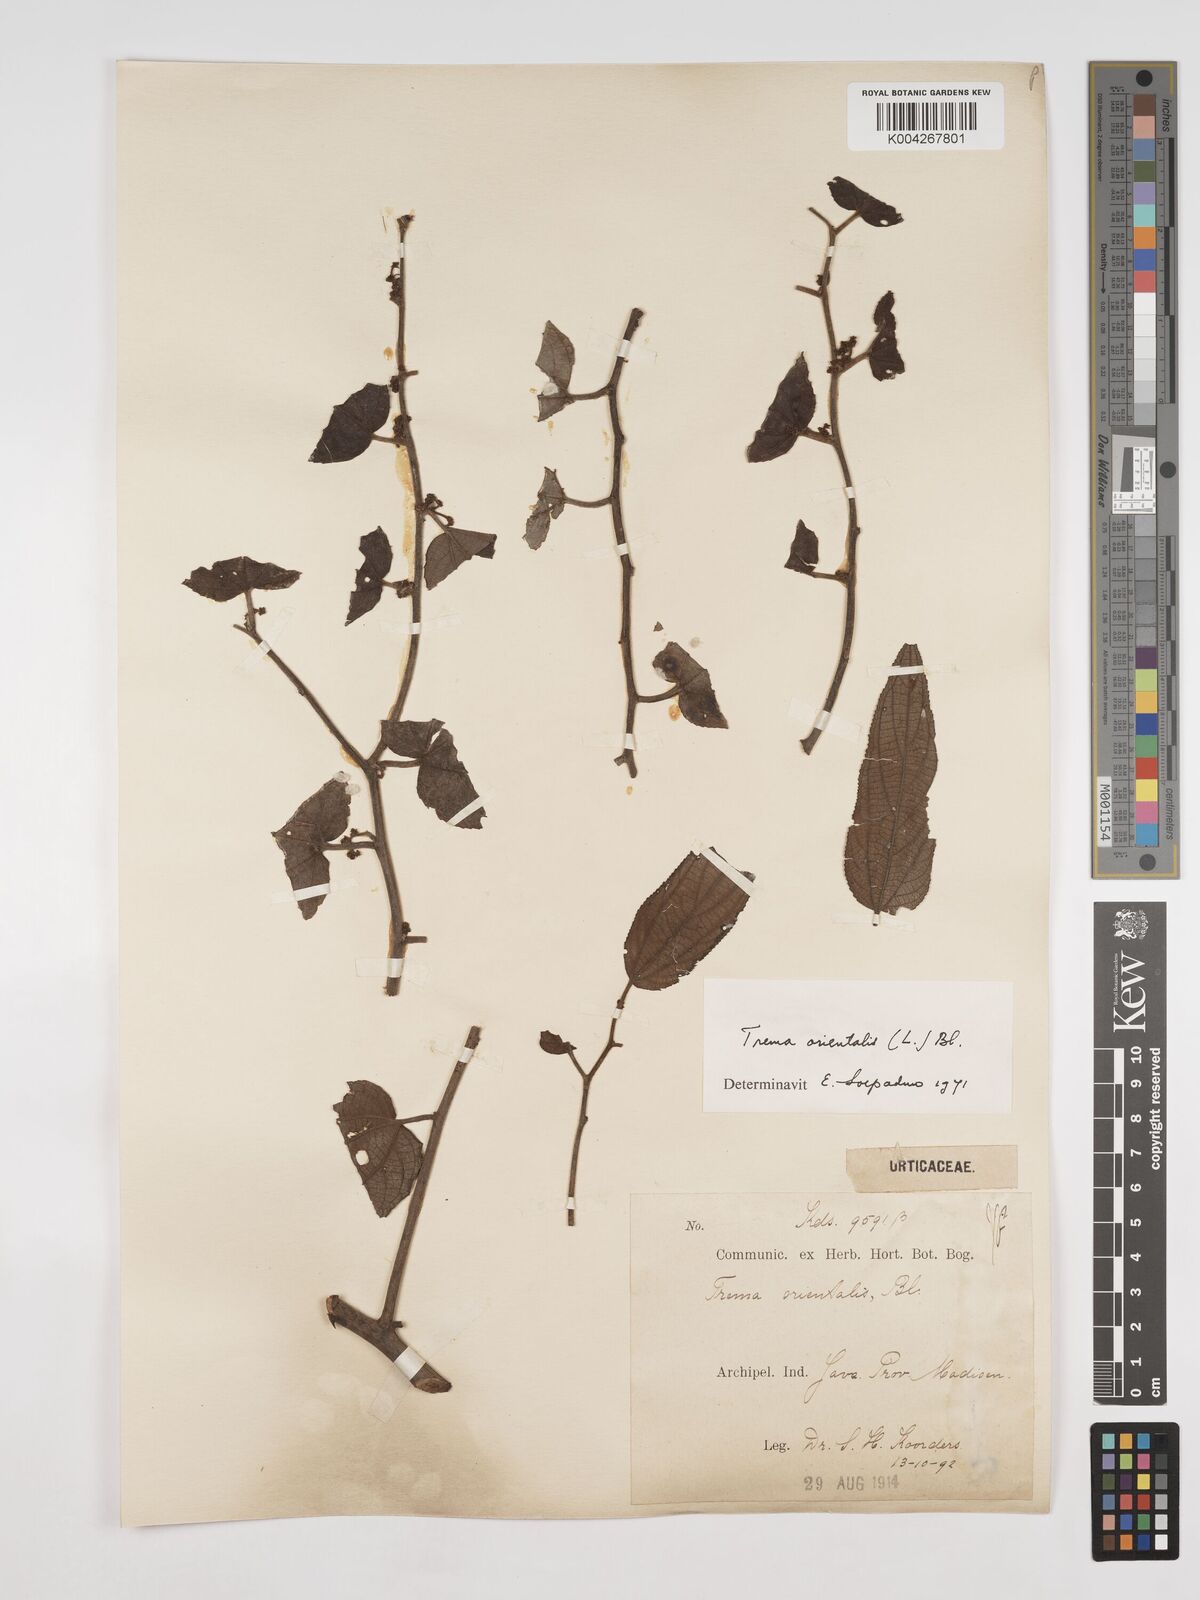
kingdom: Plantae
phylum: Tracheophyta
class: Magnoliopsida
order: Rosales
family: Cannabaceae
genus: Trema
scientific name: Trema orientale
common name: Indian charcoal tree
